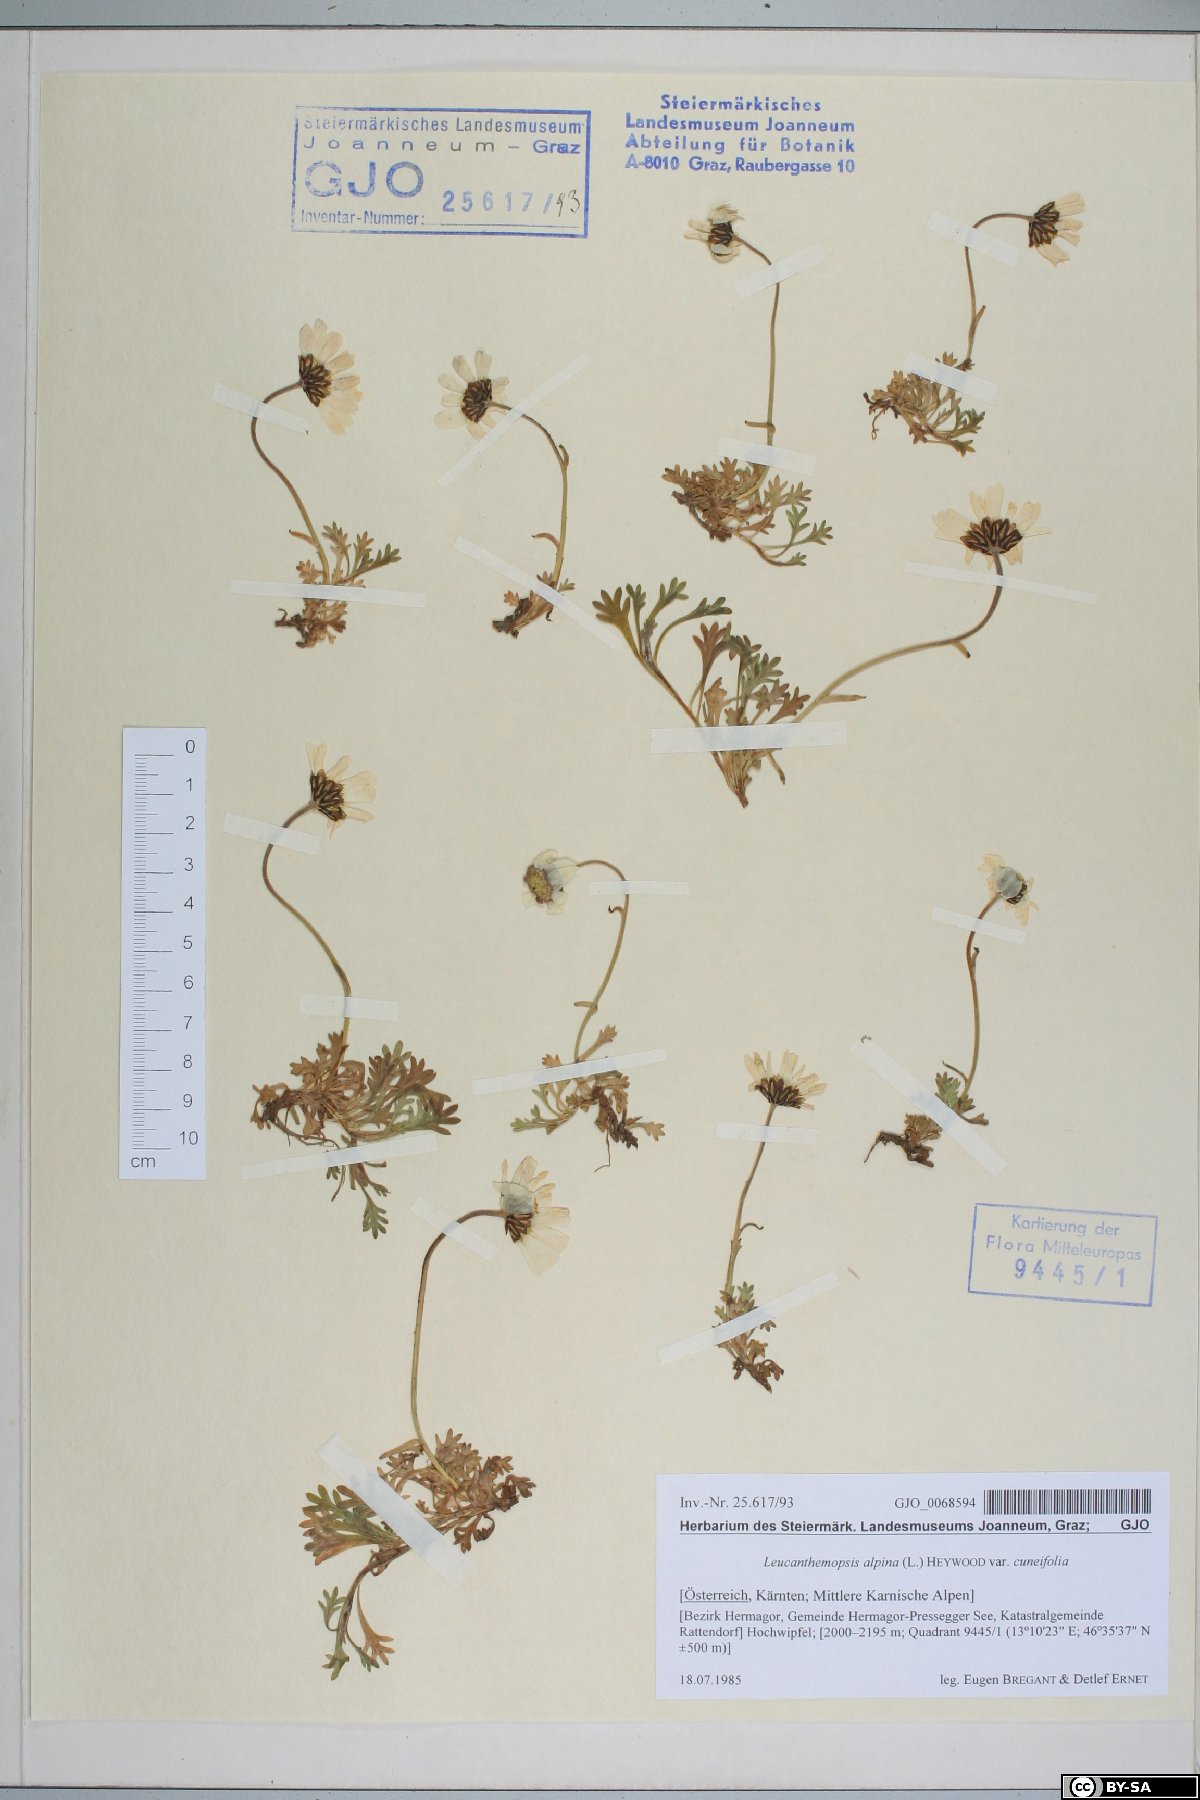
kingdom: Plantae
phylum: Tracheophyta
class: Magnoliopsida
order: Asterales
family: Asteraceae
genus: Leucanthemopsis
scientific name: Leucanthemopsis alpina
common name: Alpine moon daisy
